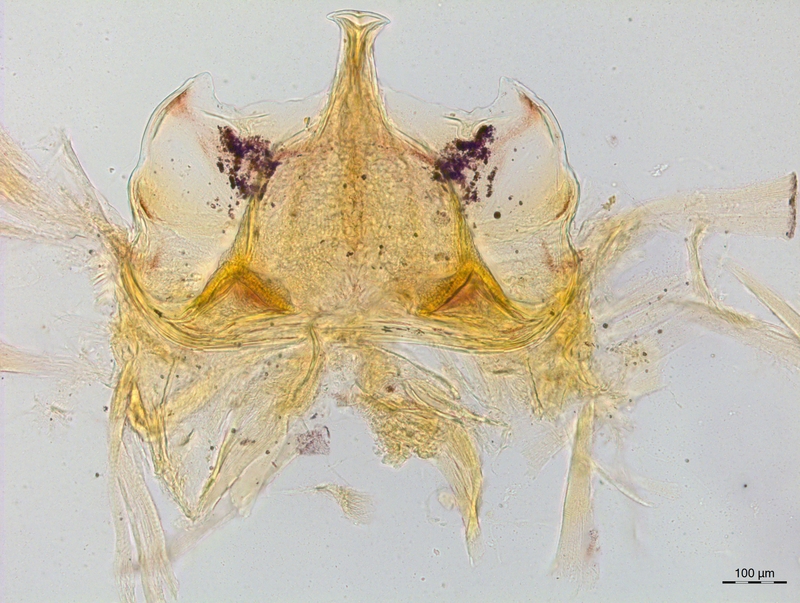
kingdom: Animalia
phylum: Arthropoda
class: Diplopoda
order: Chordeumatida
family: Craspedosomatidae
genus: Craspedosoma
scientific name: Craspedosoma oropense
